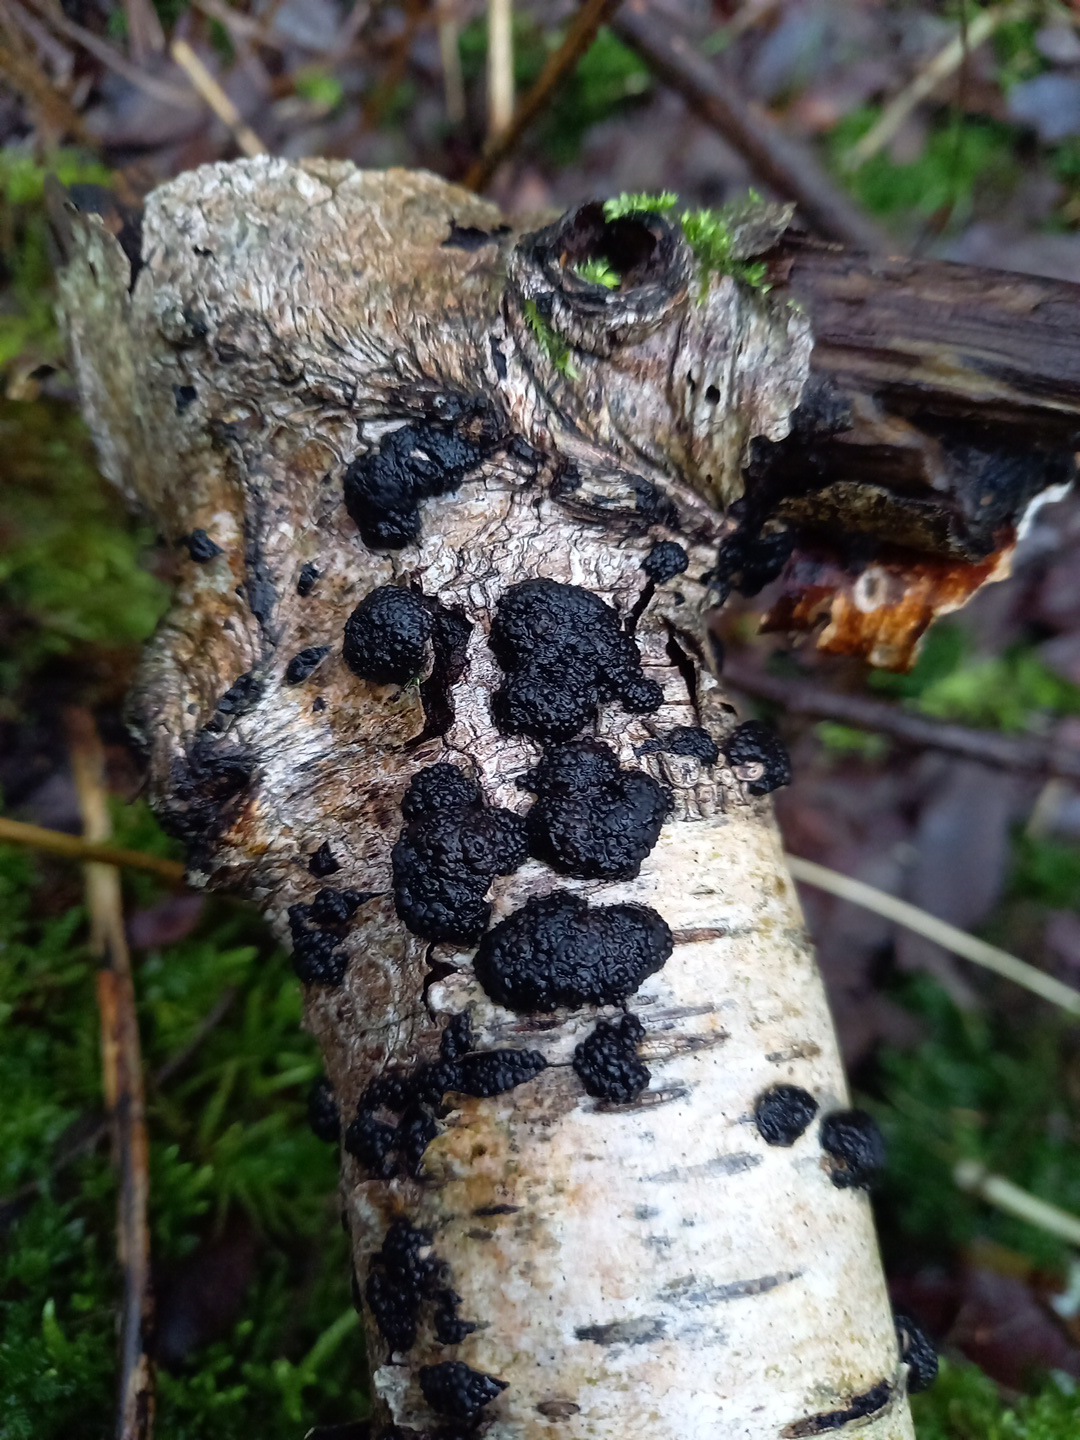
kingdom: Fungi
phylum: Ascomycota
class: Sordariomycetes
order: Xylariales
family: Hypoxylaceae
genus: Jackrogersella
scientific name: Jackrogersella multiformis
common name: foranderlig kulbær
